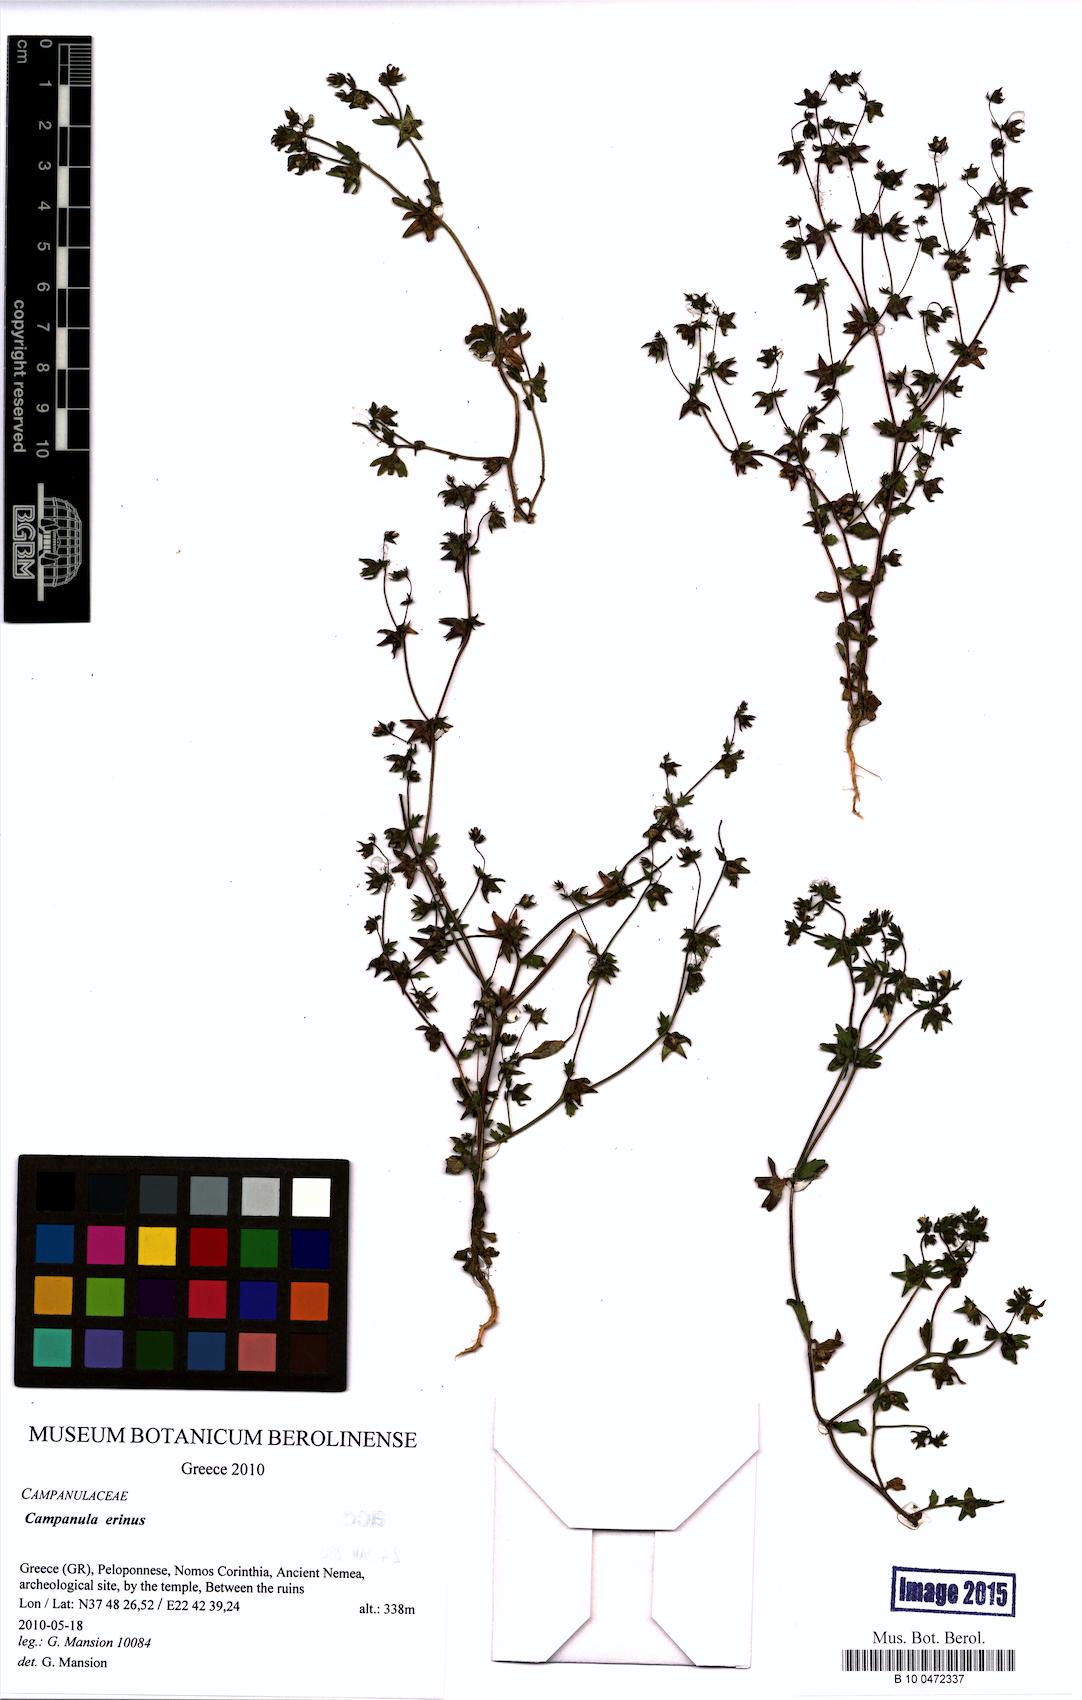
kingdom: Plantae
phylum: Tracheophyta
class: Magnoliopsida
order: Asterales
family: Campanulaceae
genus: Campanula
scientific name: Campanula erinus
